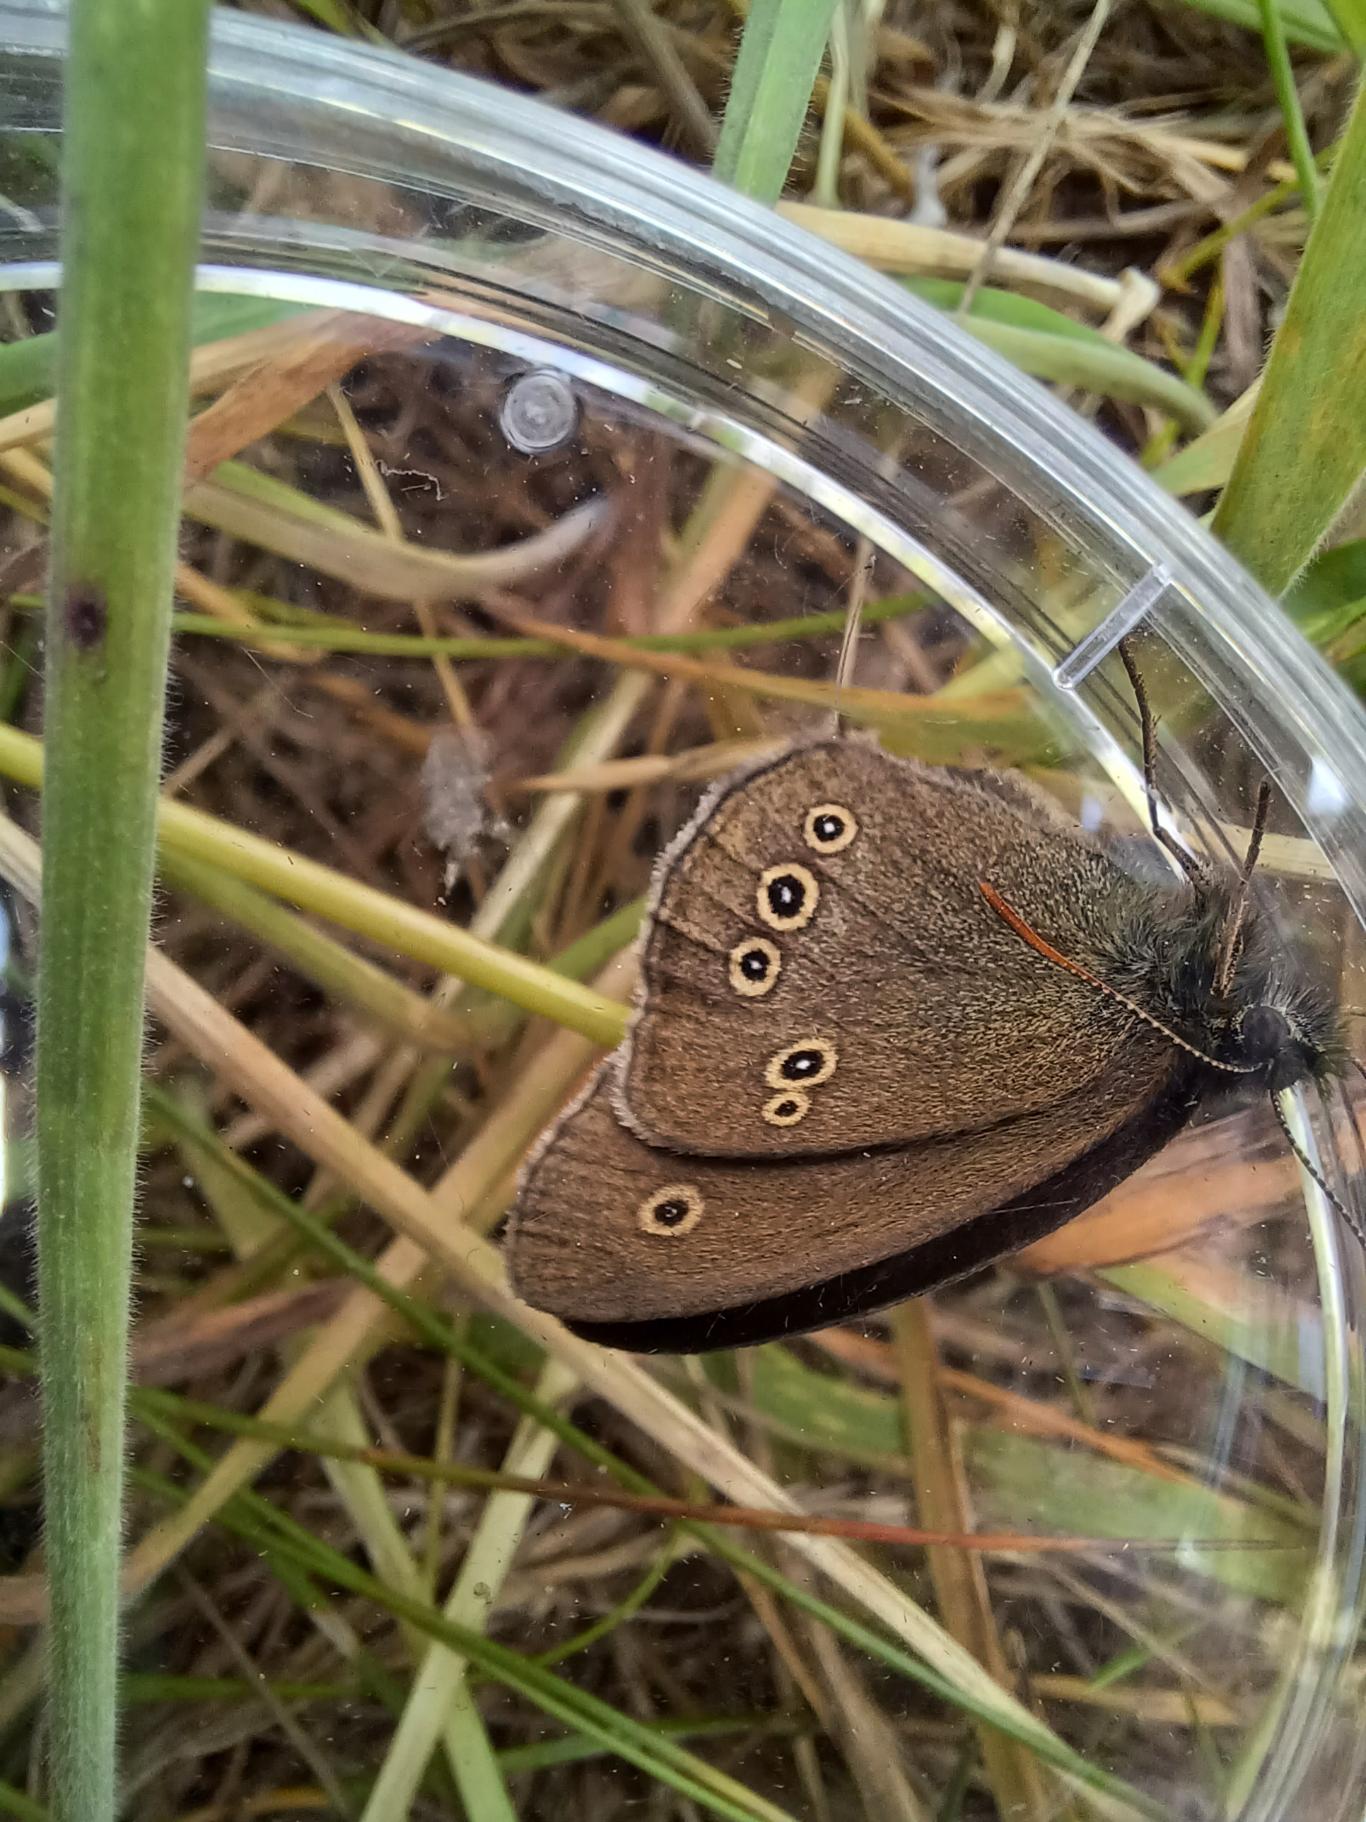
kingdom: Animalia
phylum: Arthropoda
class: Insecta
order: Lepidoptera
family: Nymphalidae
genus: Aphantopus
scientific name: Aphantopus hyperantus
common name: Engrandøje
